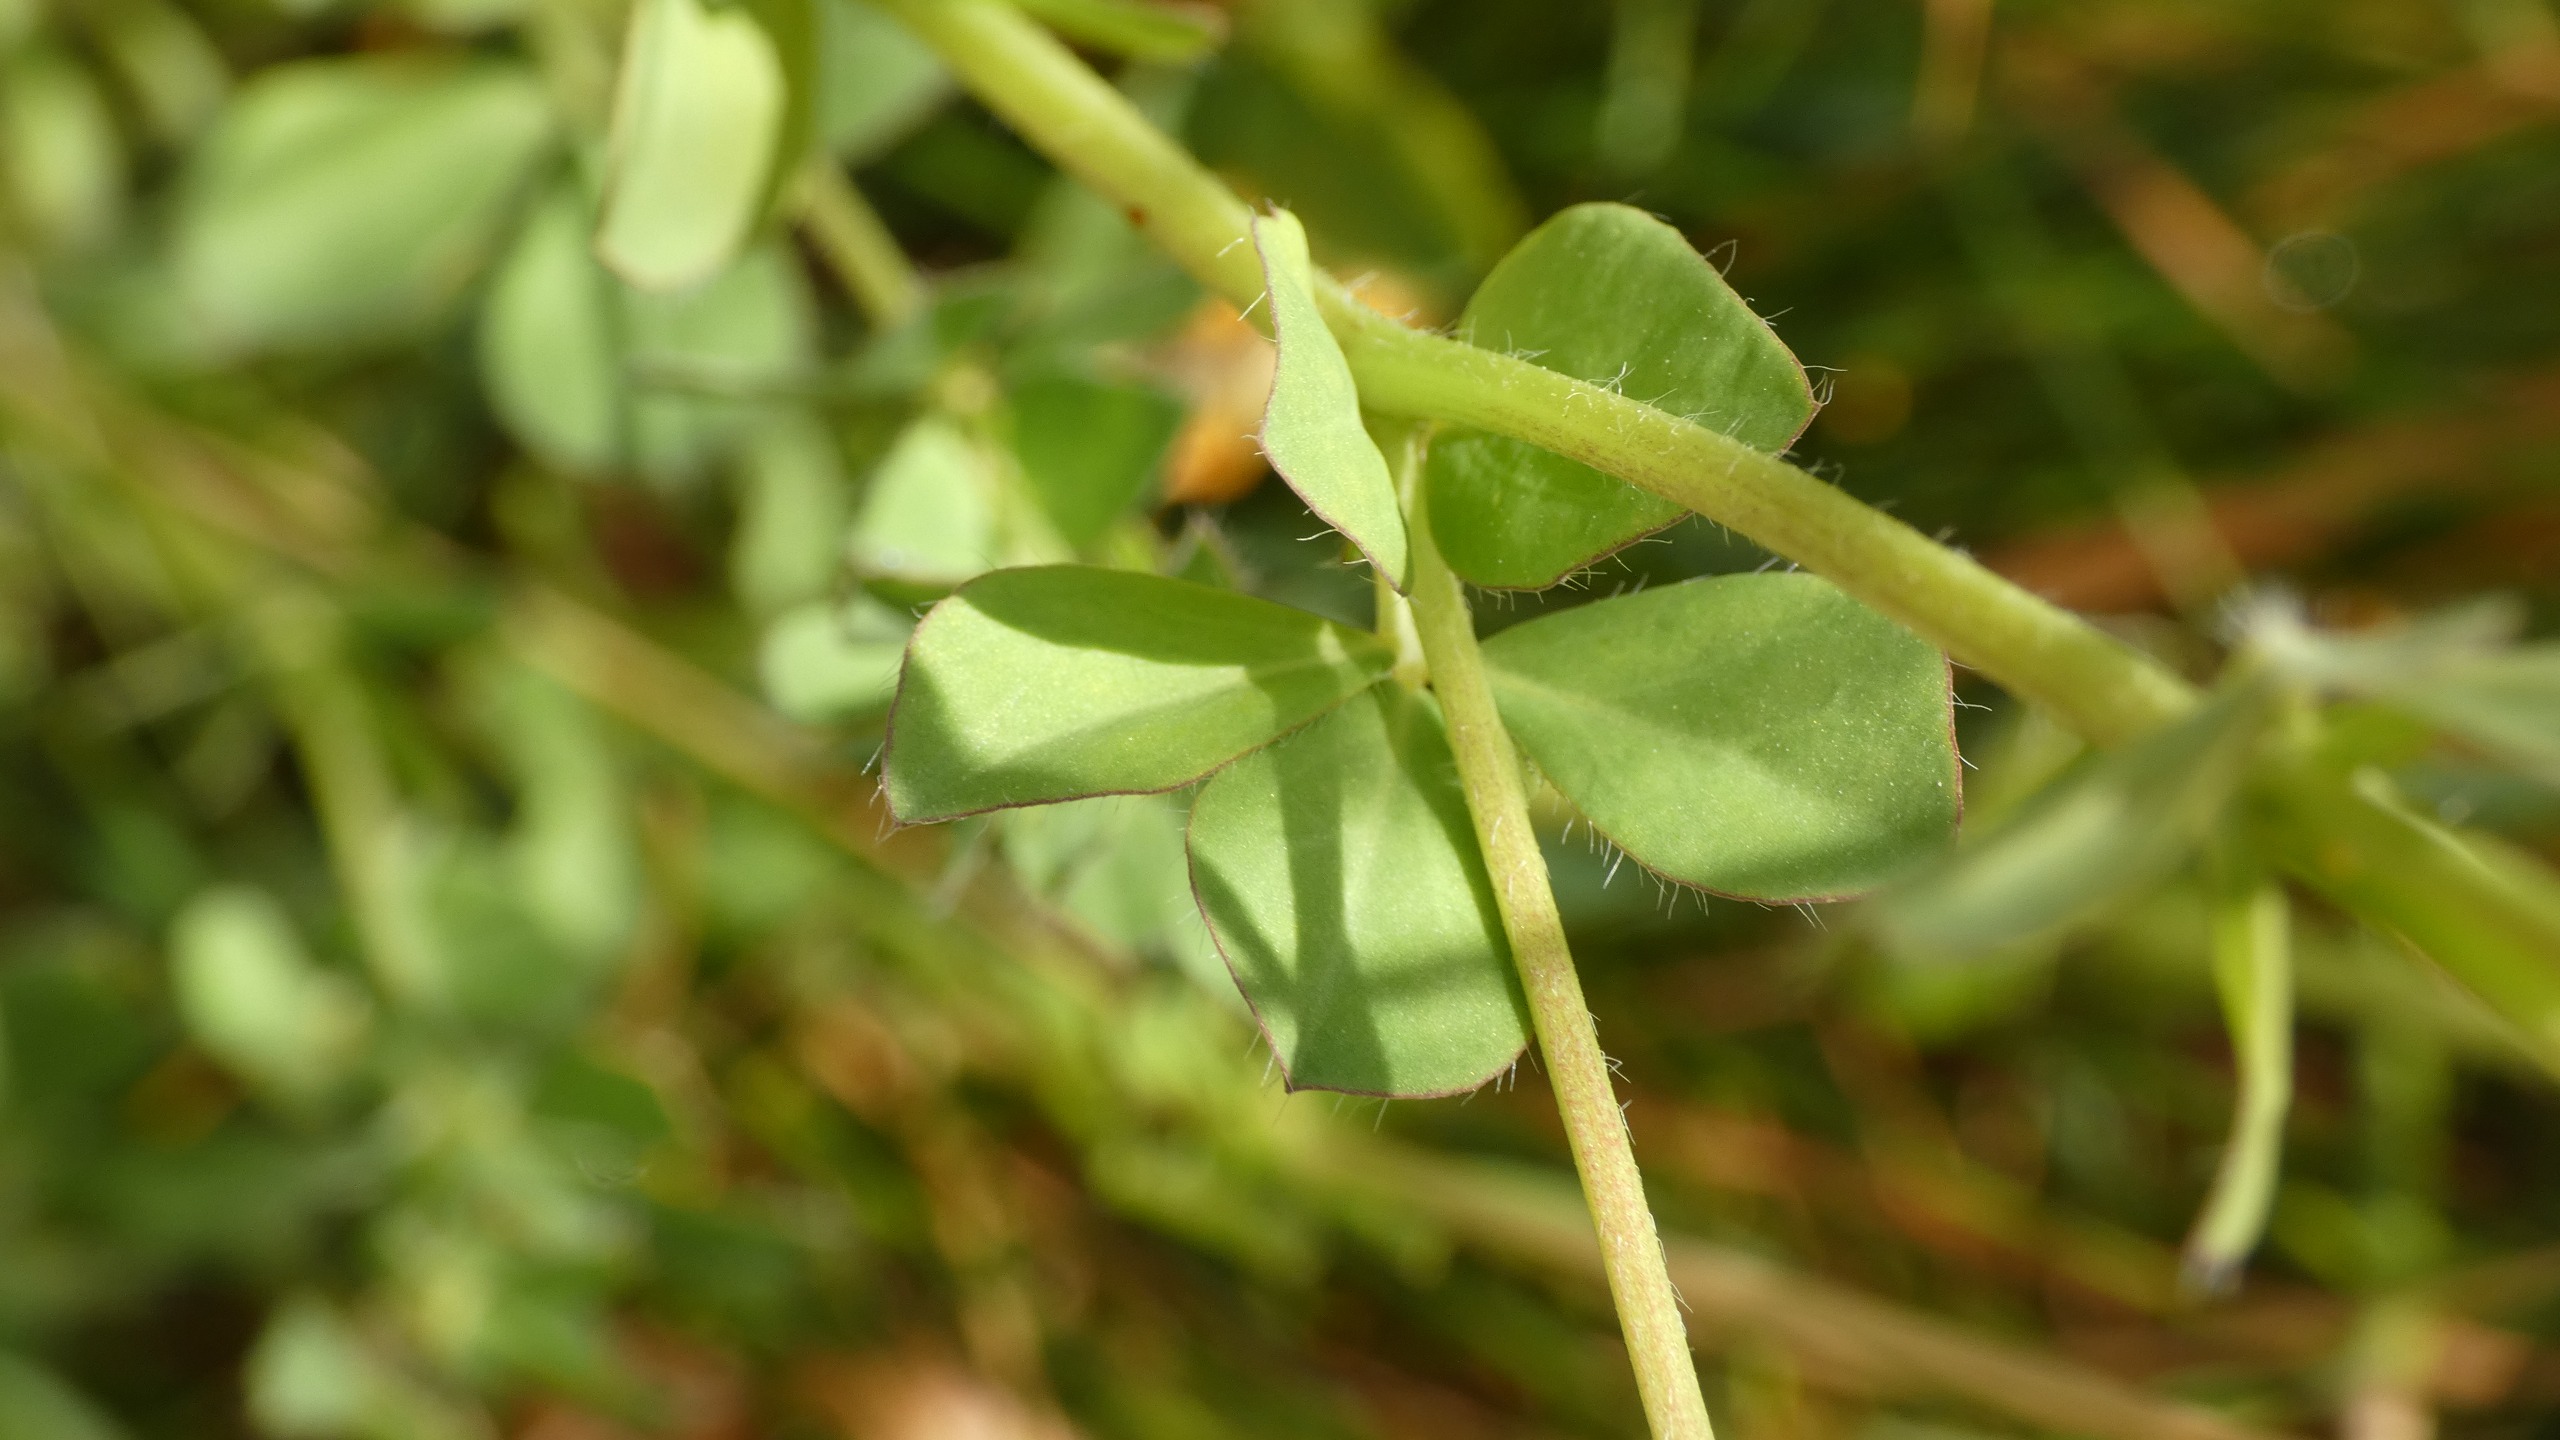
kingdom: Plantae
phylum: Tracheophyta
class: Magnoliopsida
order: Fabales
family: Fabaceae
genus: Lotus
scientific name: Lotus corniculatus
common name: Almindelig kællingetand
